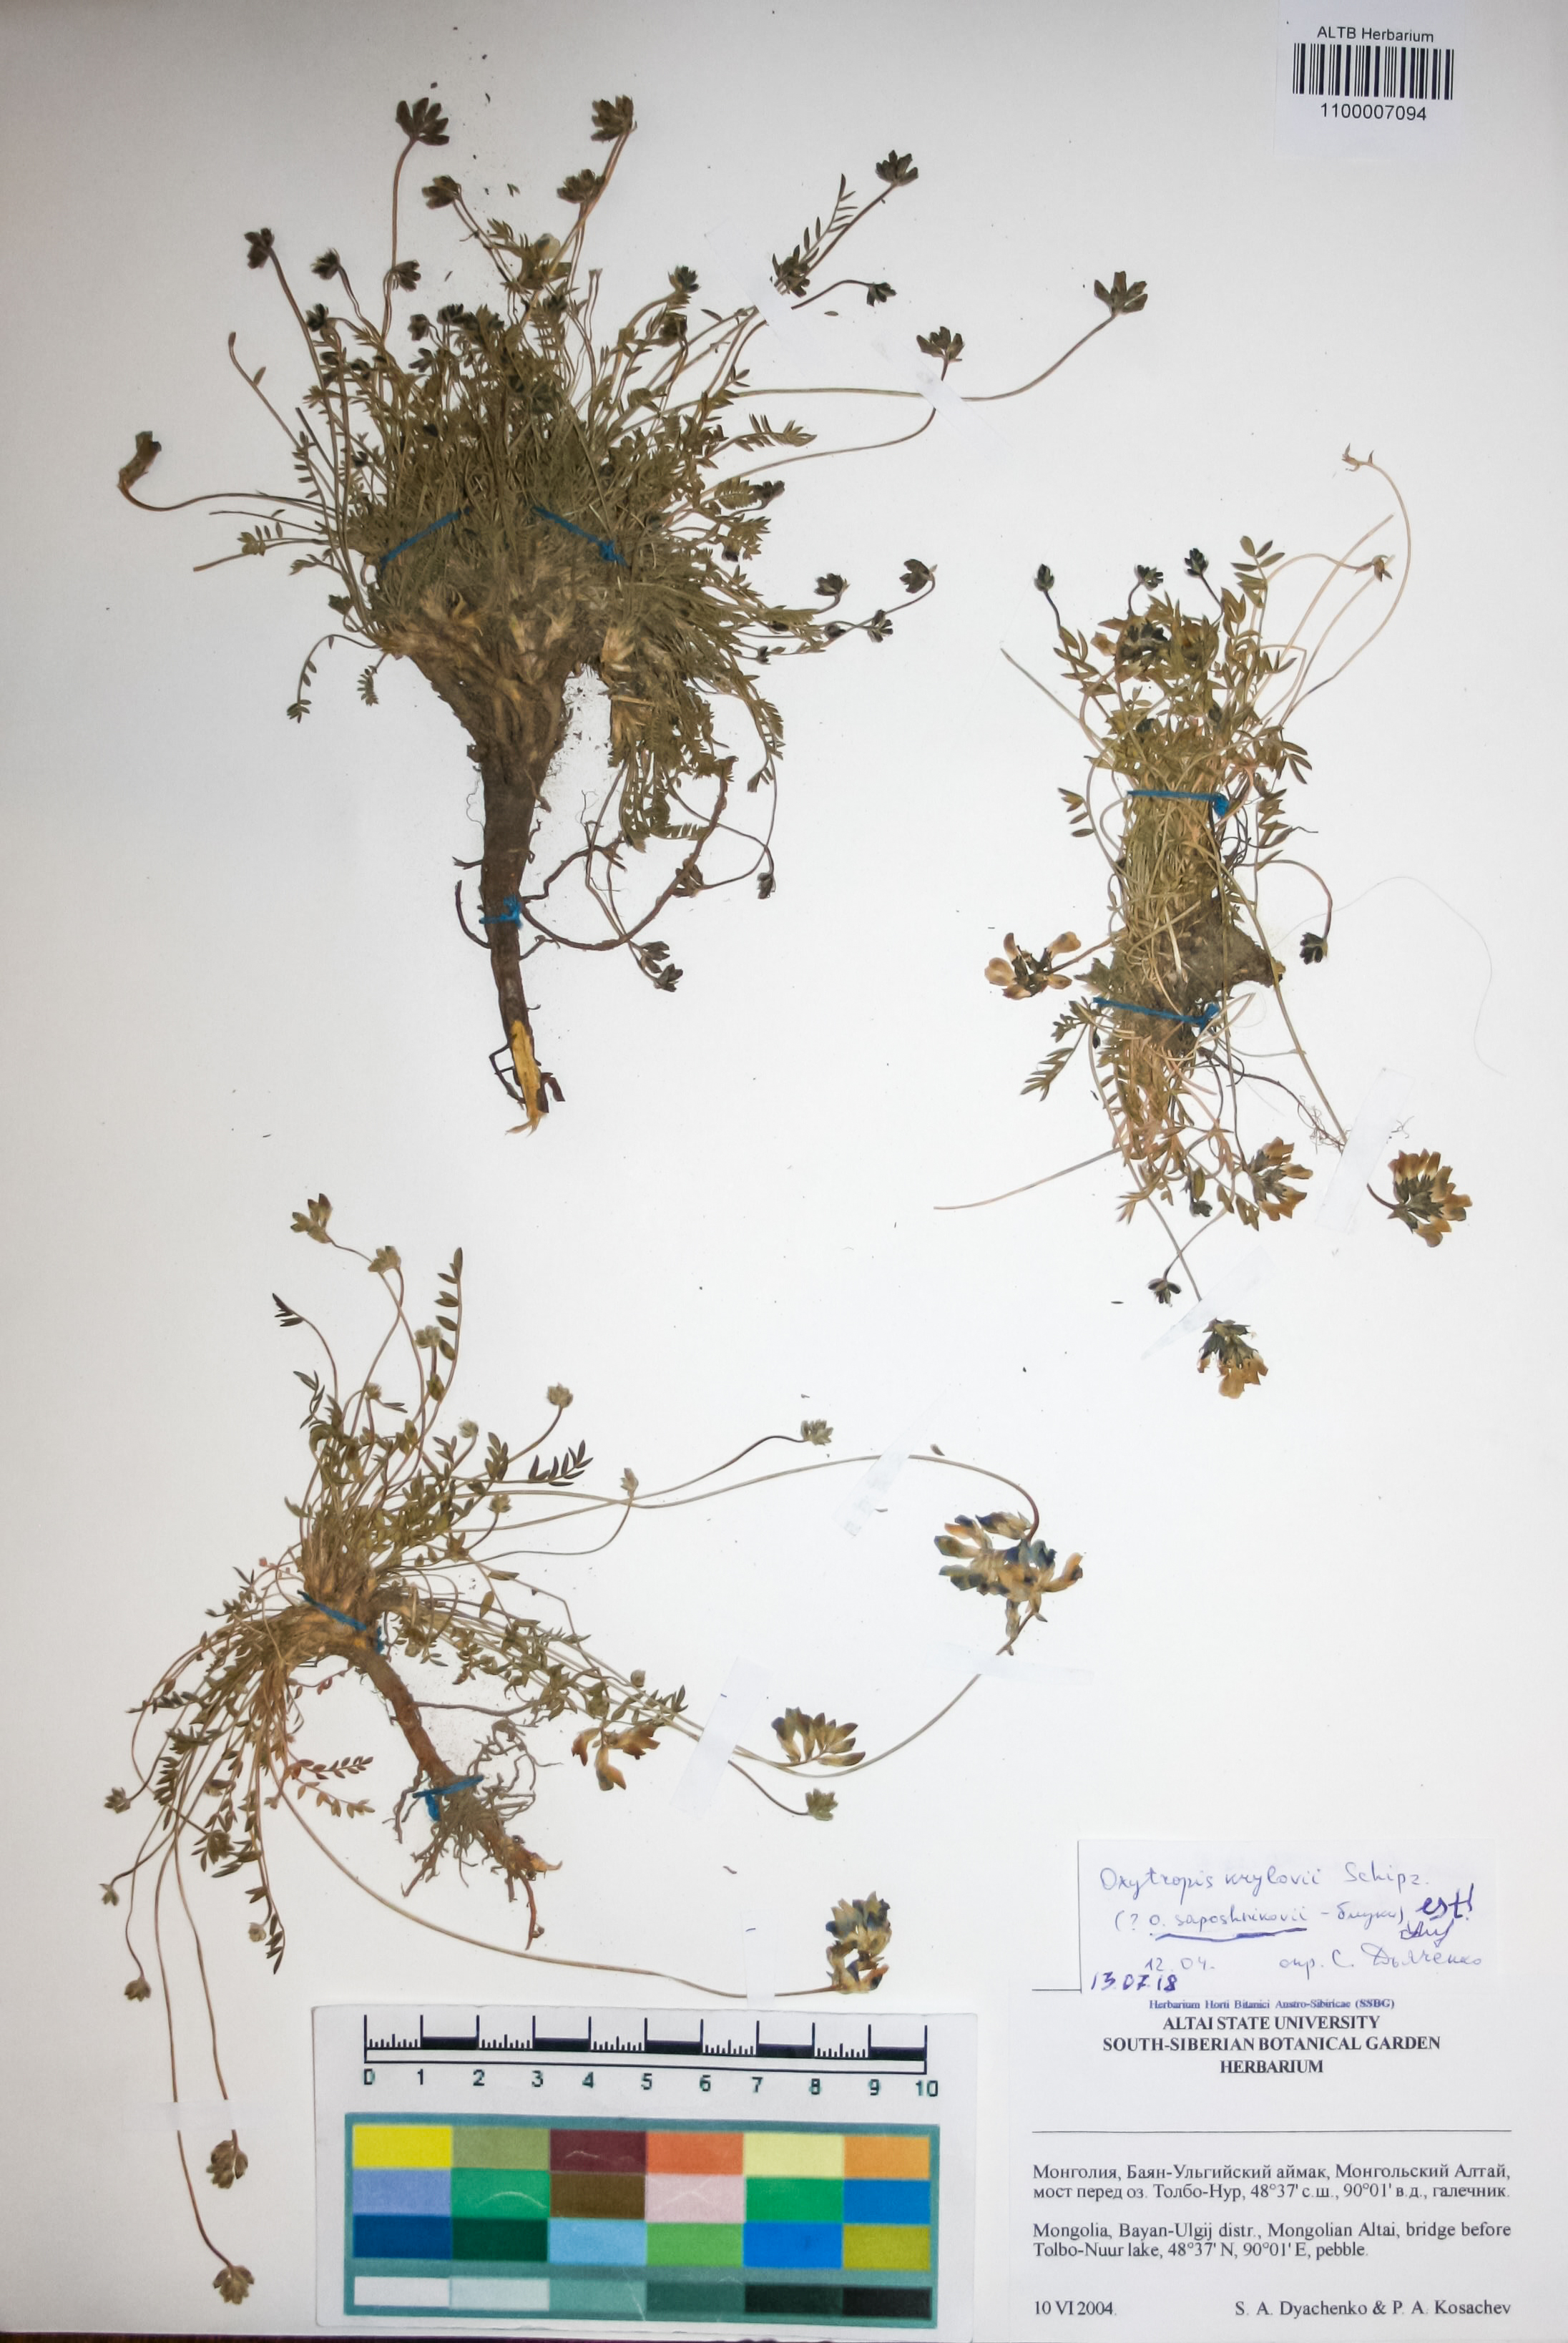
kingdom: Plantae
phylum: Tracheophyta
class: Magnoliopsida
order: Fabales
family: Fabaceae
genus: Oxytropis
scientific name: Oxytropis saposhnikovii
